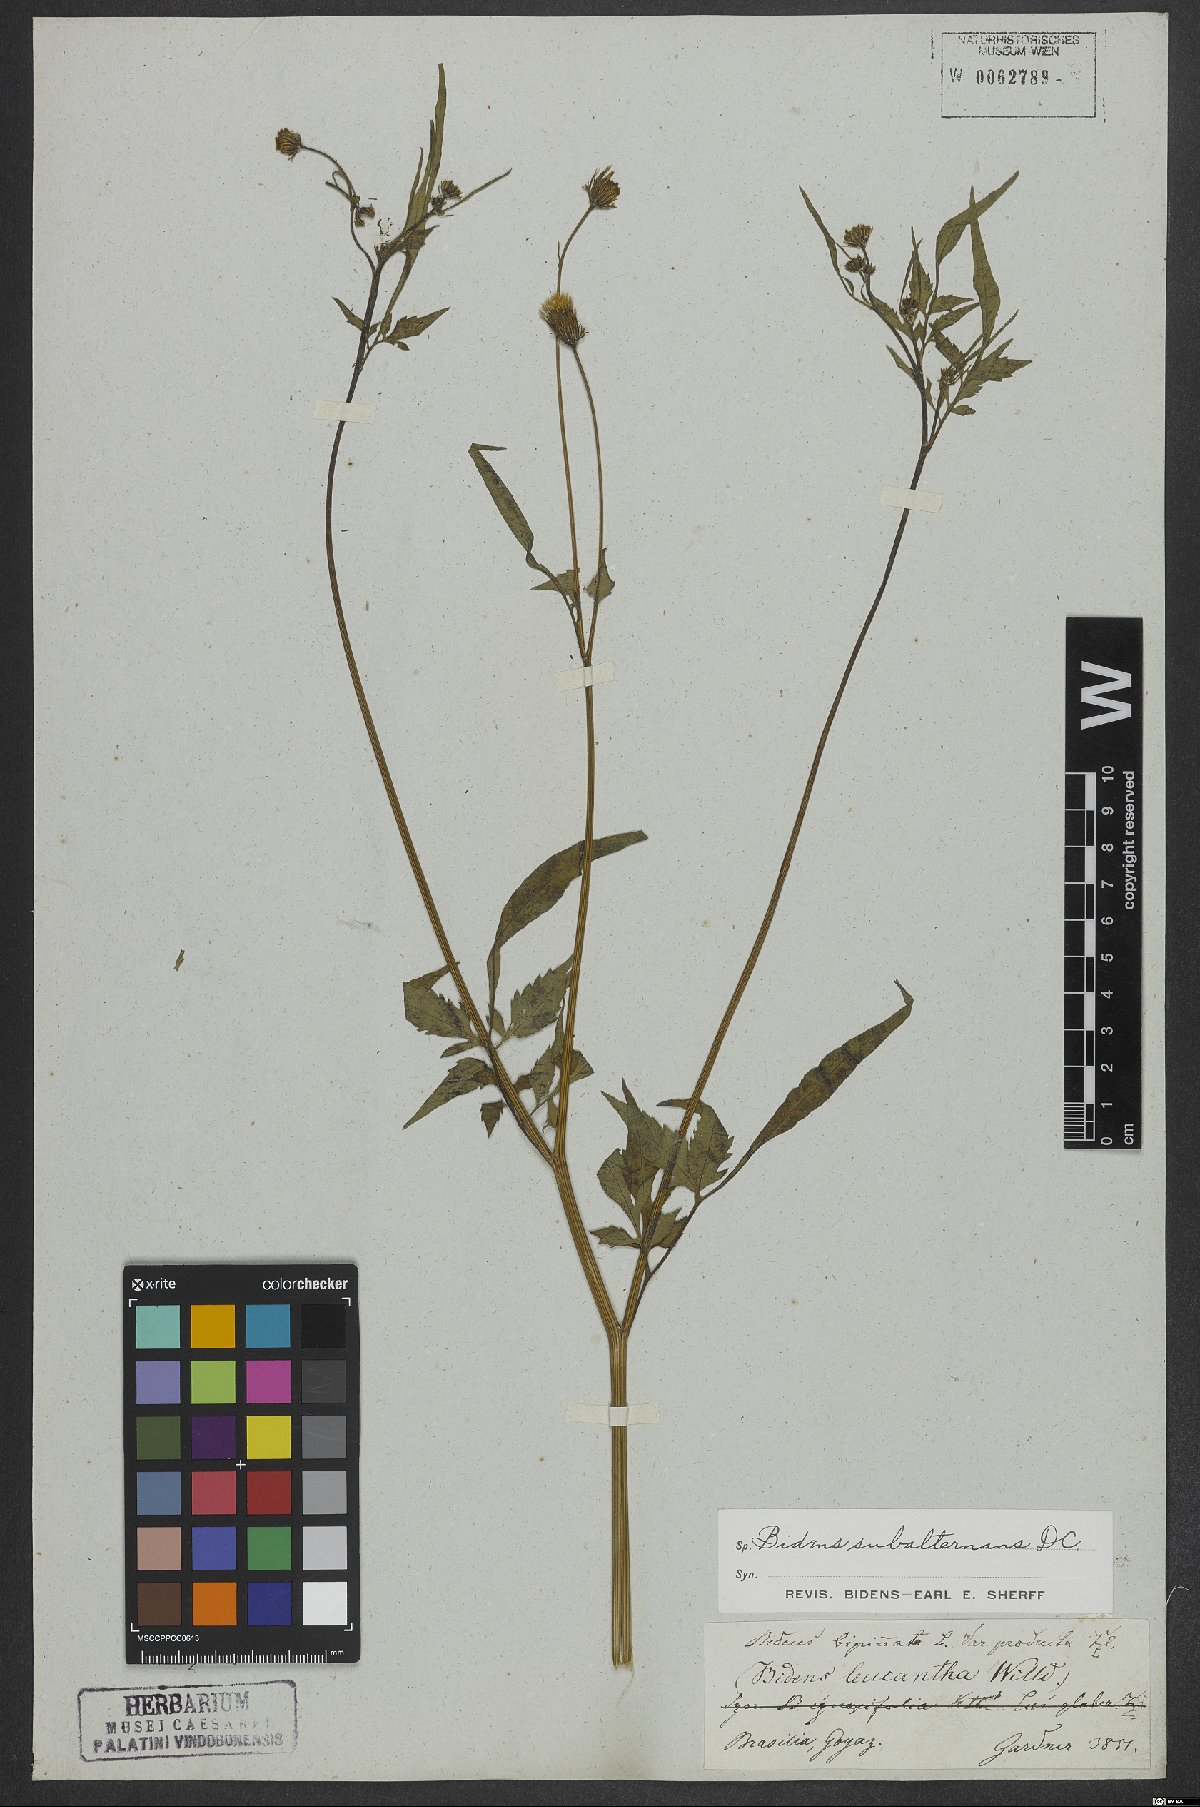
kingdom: Plantae
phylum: Tracheophyta
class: Magnoliopsida
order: Asterales
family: Asteraceae
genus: Bidens
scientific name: Bidens subalternans
